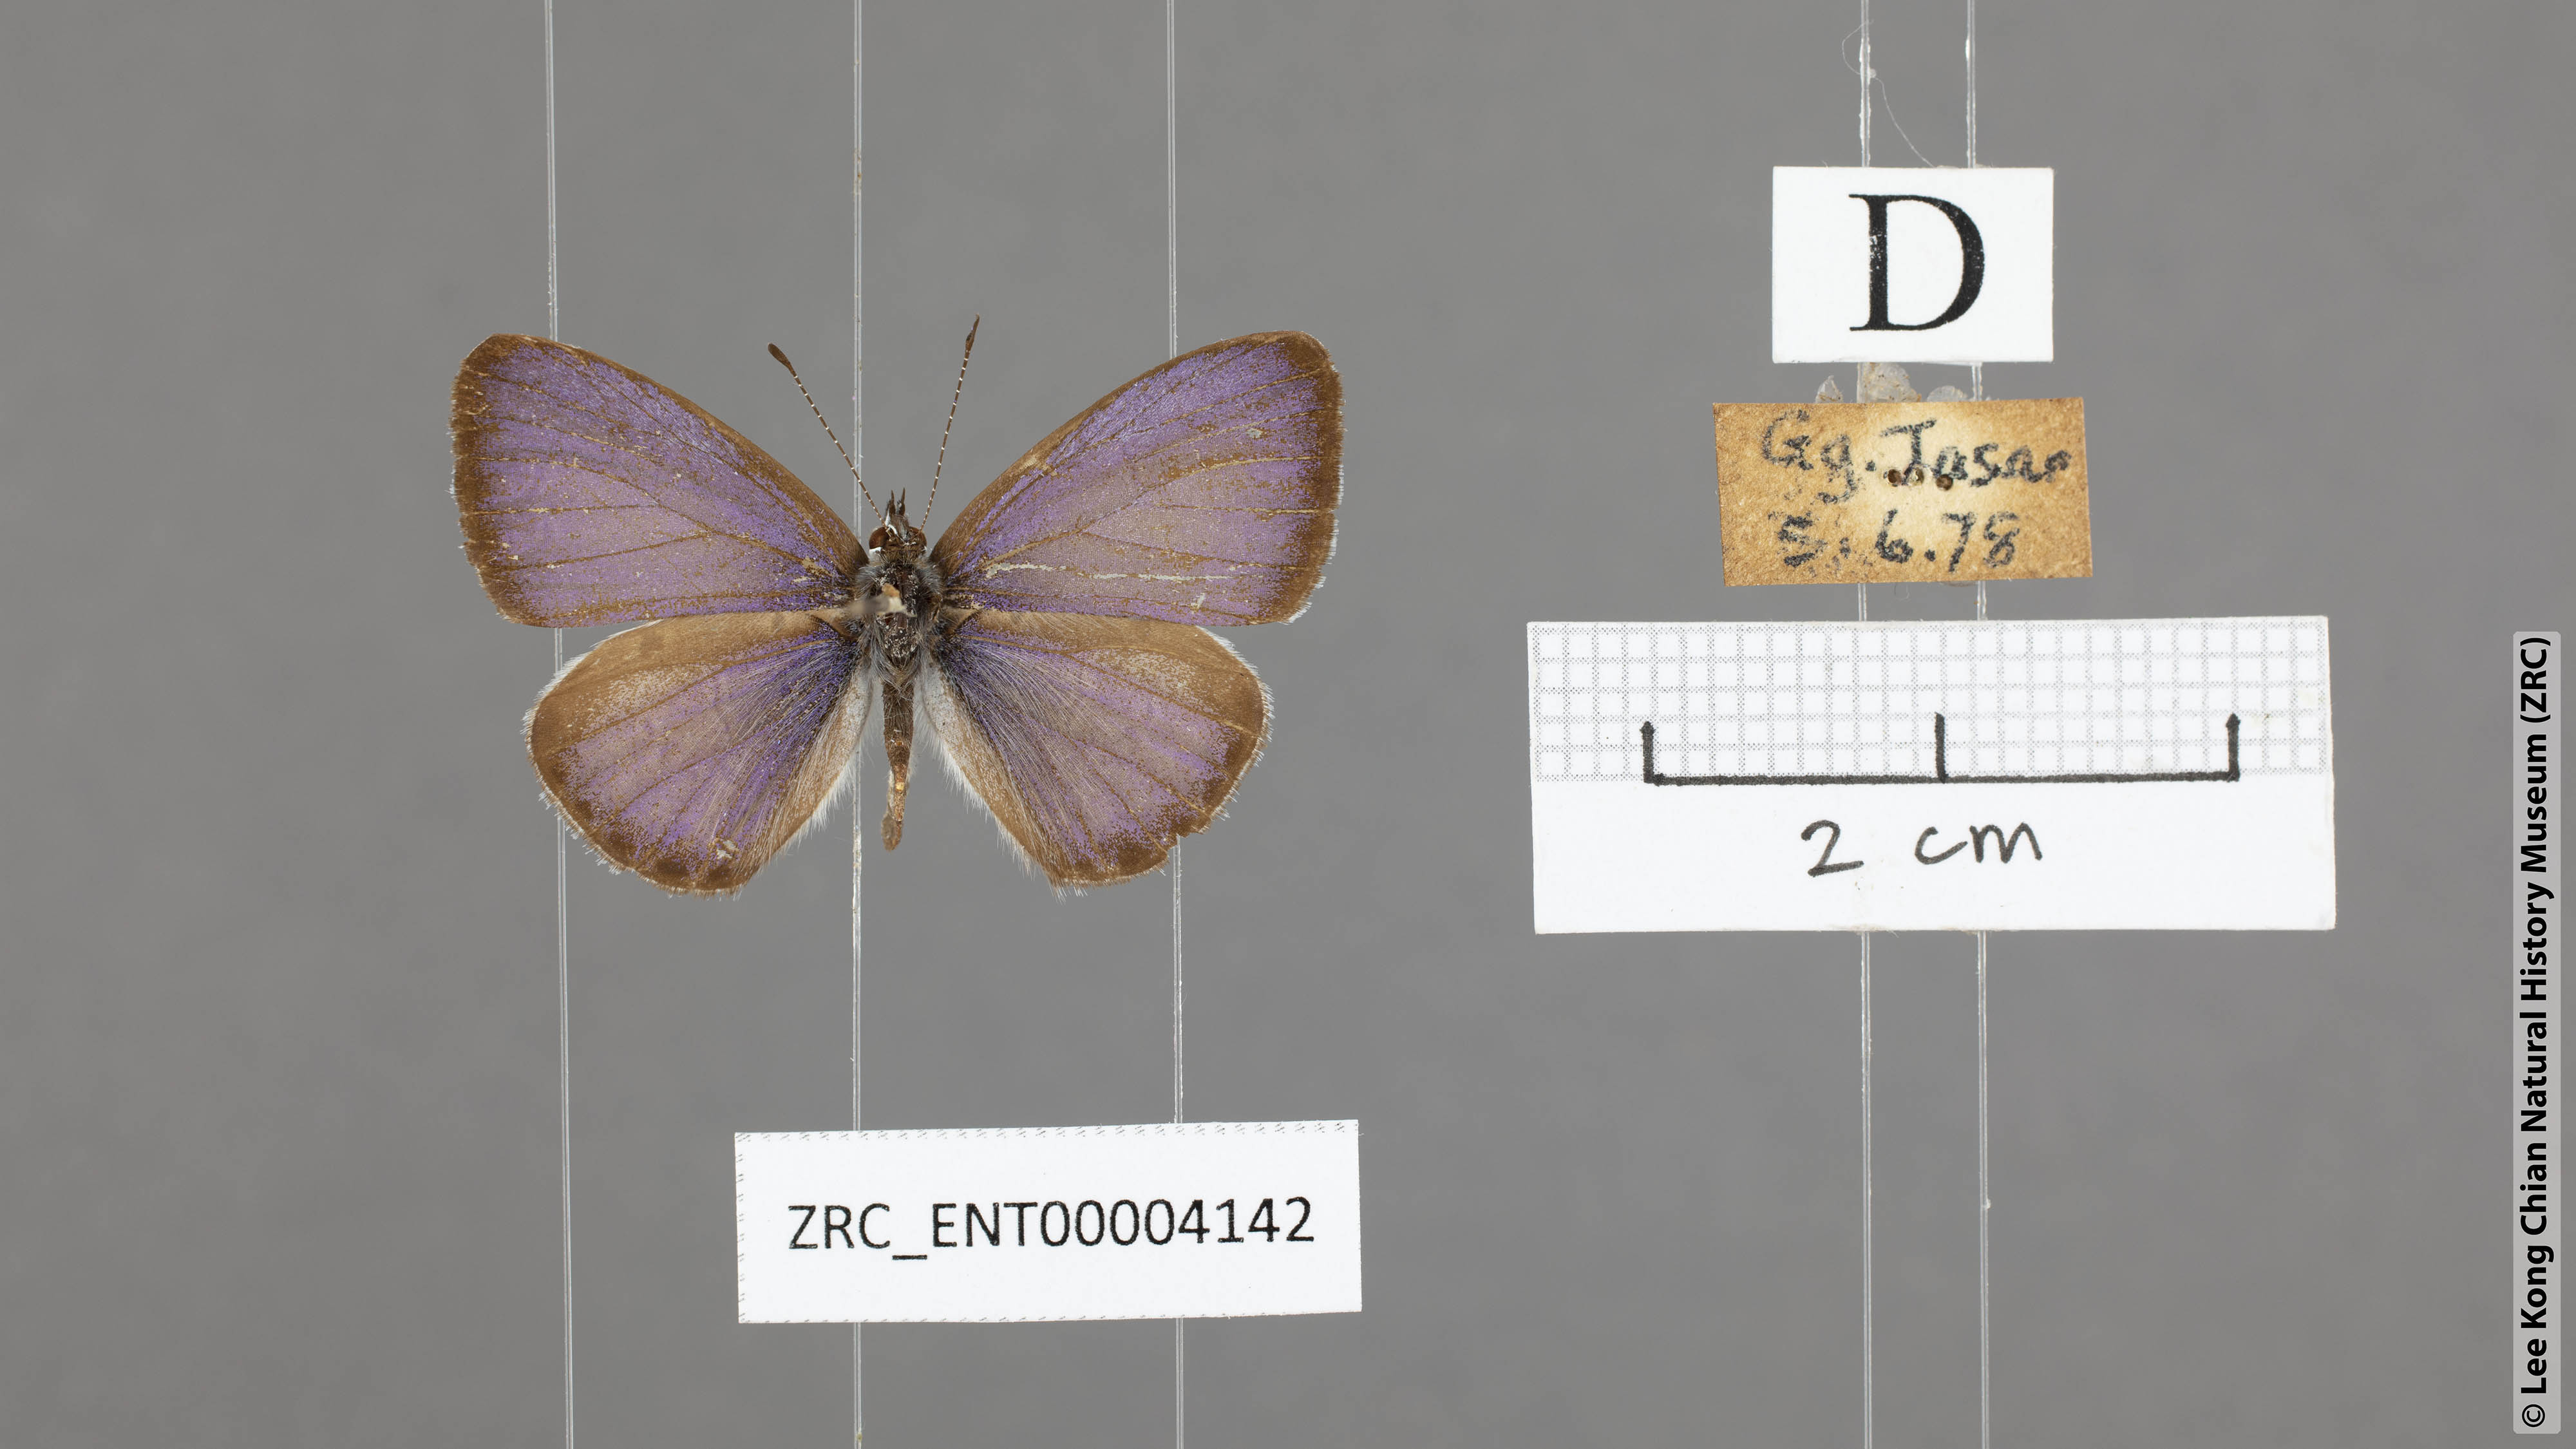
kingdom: Animalia
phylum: Arthropoda
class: Insecta
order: Lepidoptera
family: Lycaenidae
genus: Celastrina
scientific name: Celastrina lavendularis
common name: Plain hedge blue
